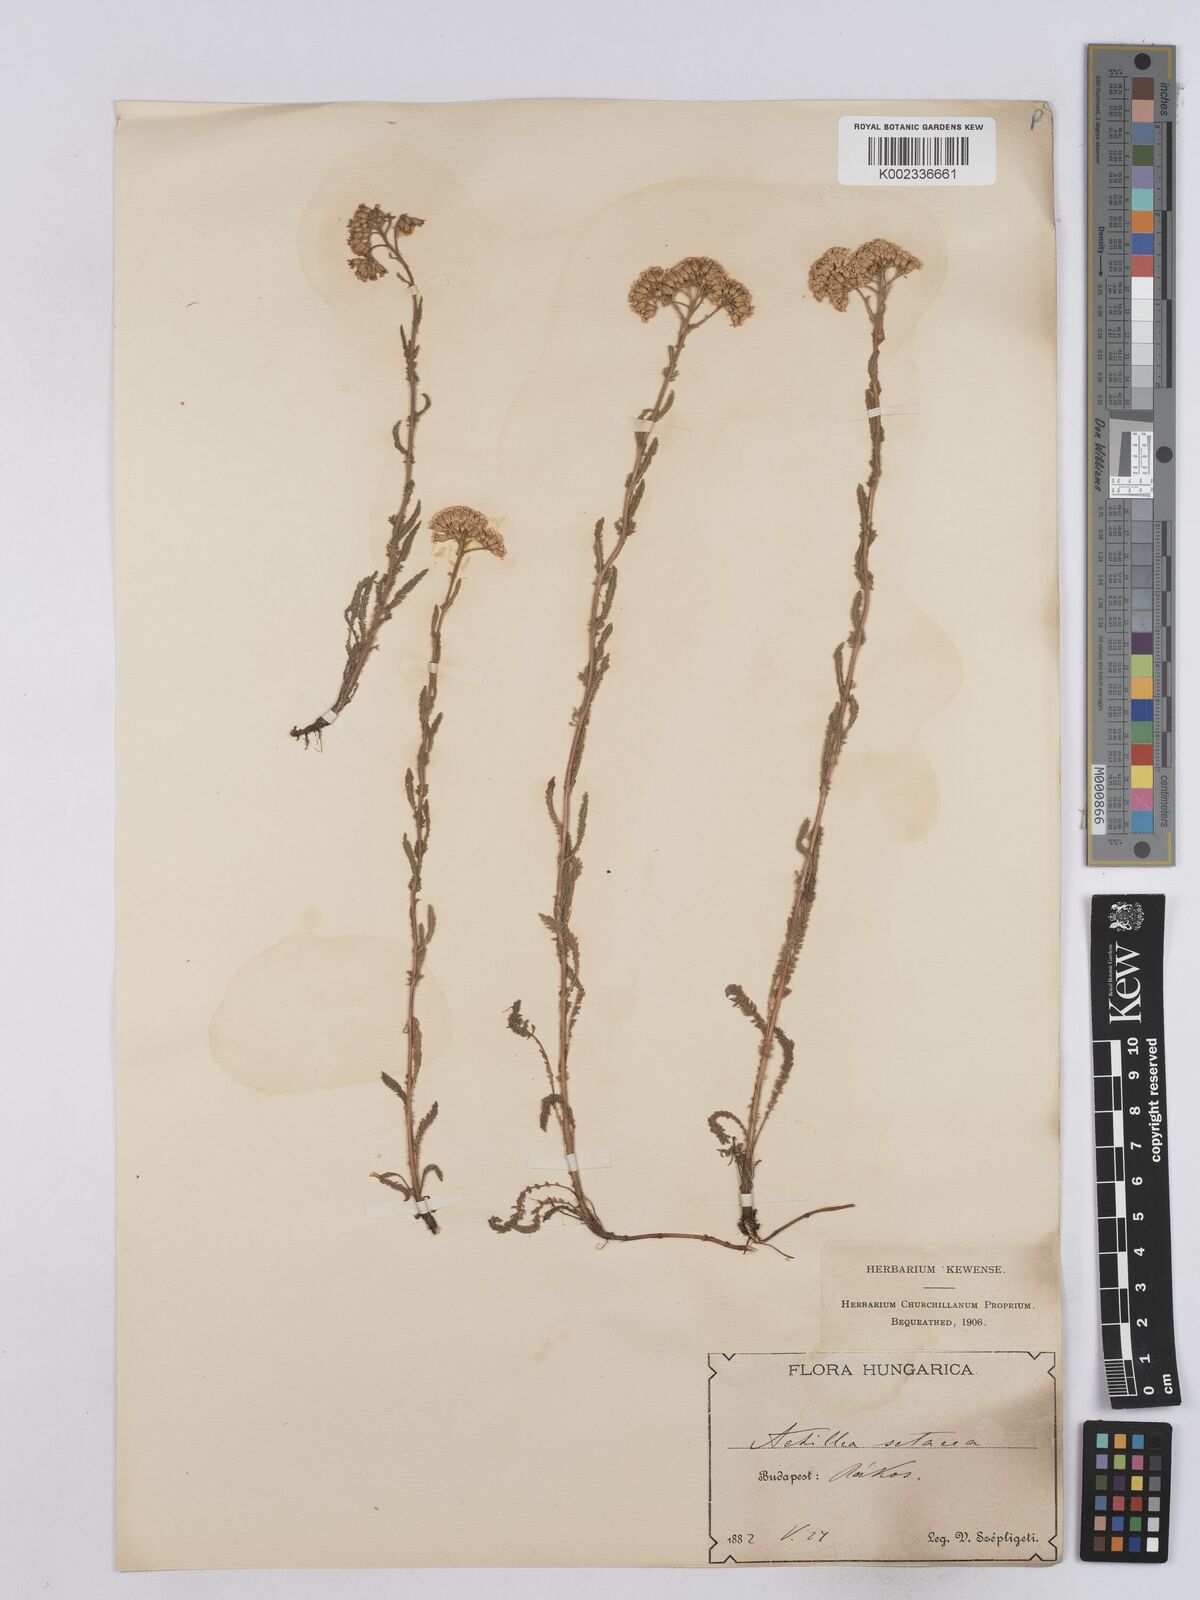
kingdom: Plantae
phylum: Tracheophyta
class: Magnoliopsida
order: Asterales
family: Asteraceae
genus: Achillea
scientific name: Achillea setacea
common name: Bristly yarrow
